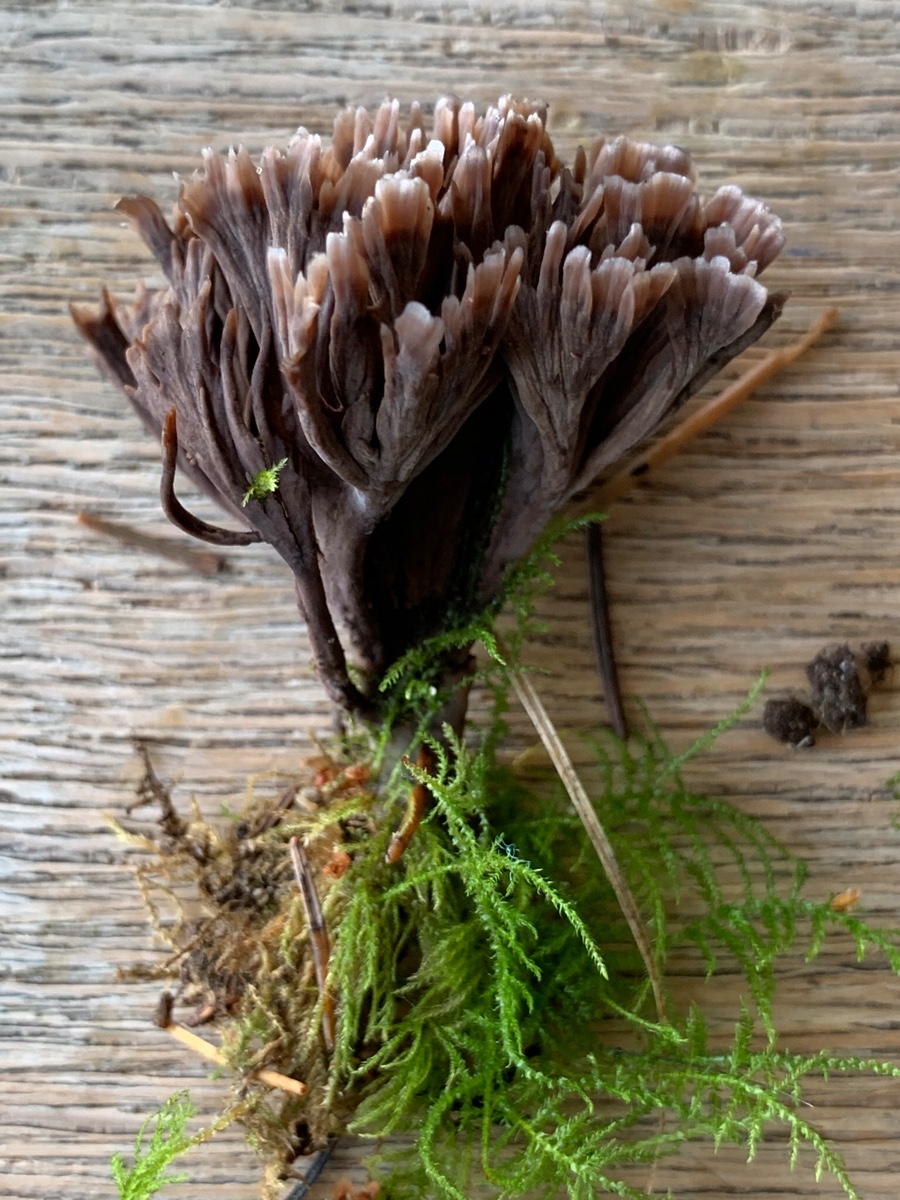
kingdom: Fungi
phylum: Basidiomycota
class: Agaricomycetes
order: Thelephorales
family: Thelephoraceae
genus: Thelephora
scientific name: Thelephora palmata
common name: grenet frynsesvamp
